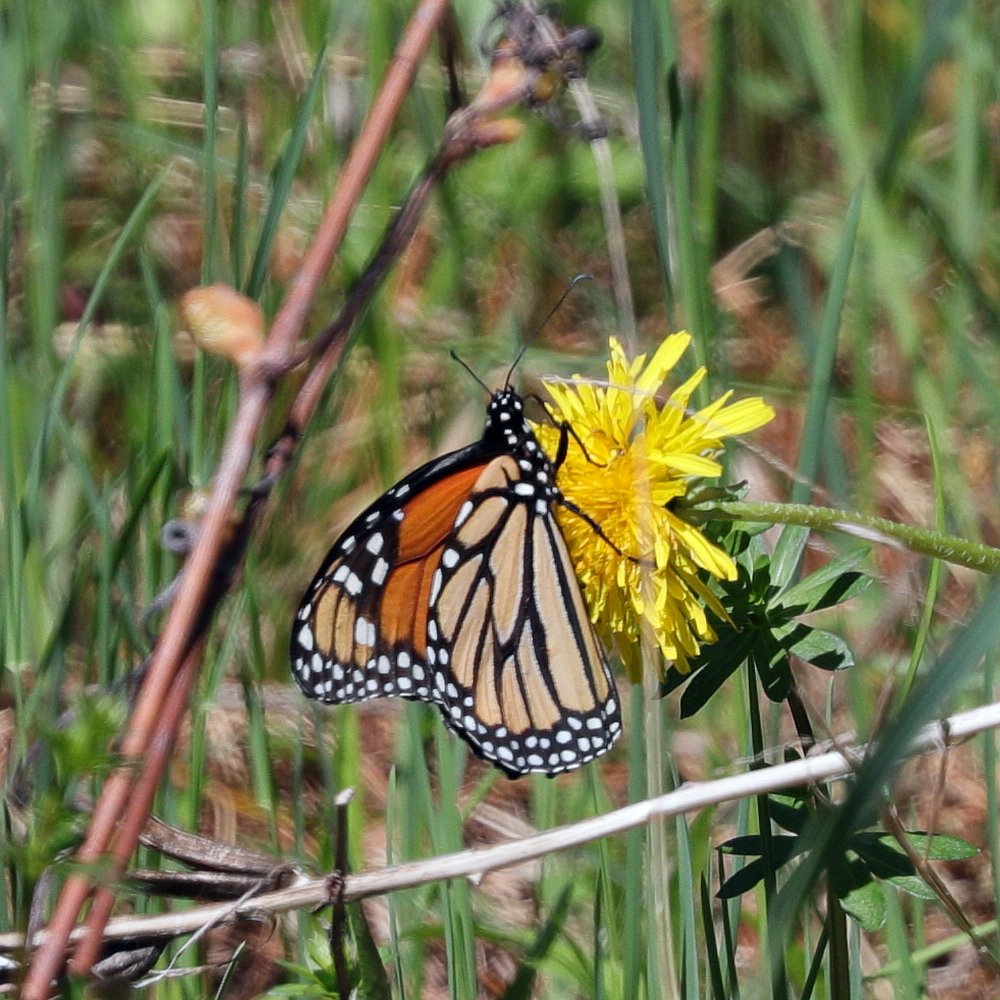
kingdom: Animalia
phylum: Arthropoda
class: Insecta
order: Lepidoptera
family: Nymphalidae
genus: Danaus
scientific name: Danaus plexippus
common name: Monarch
